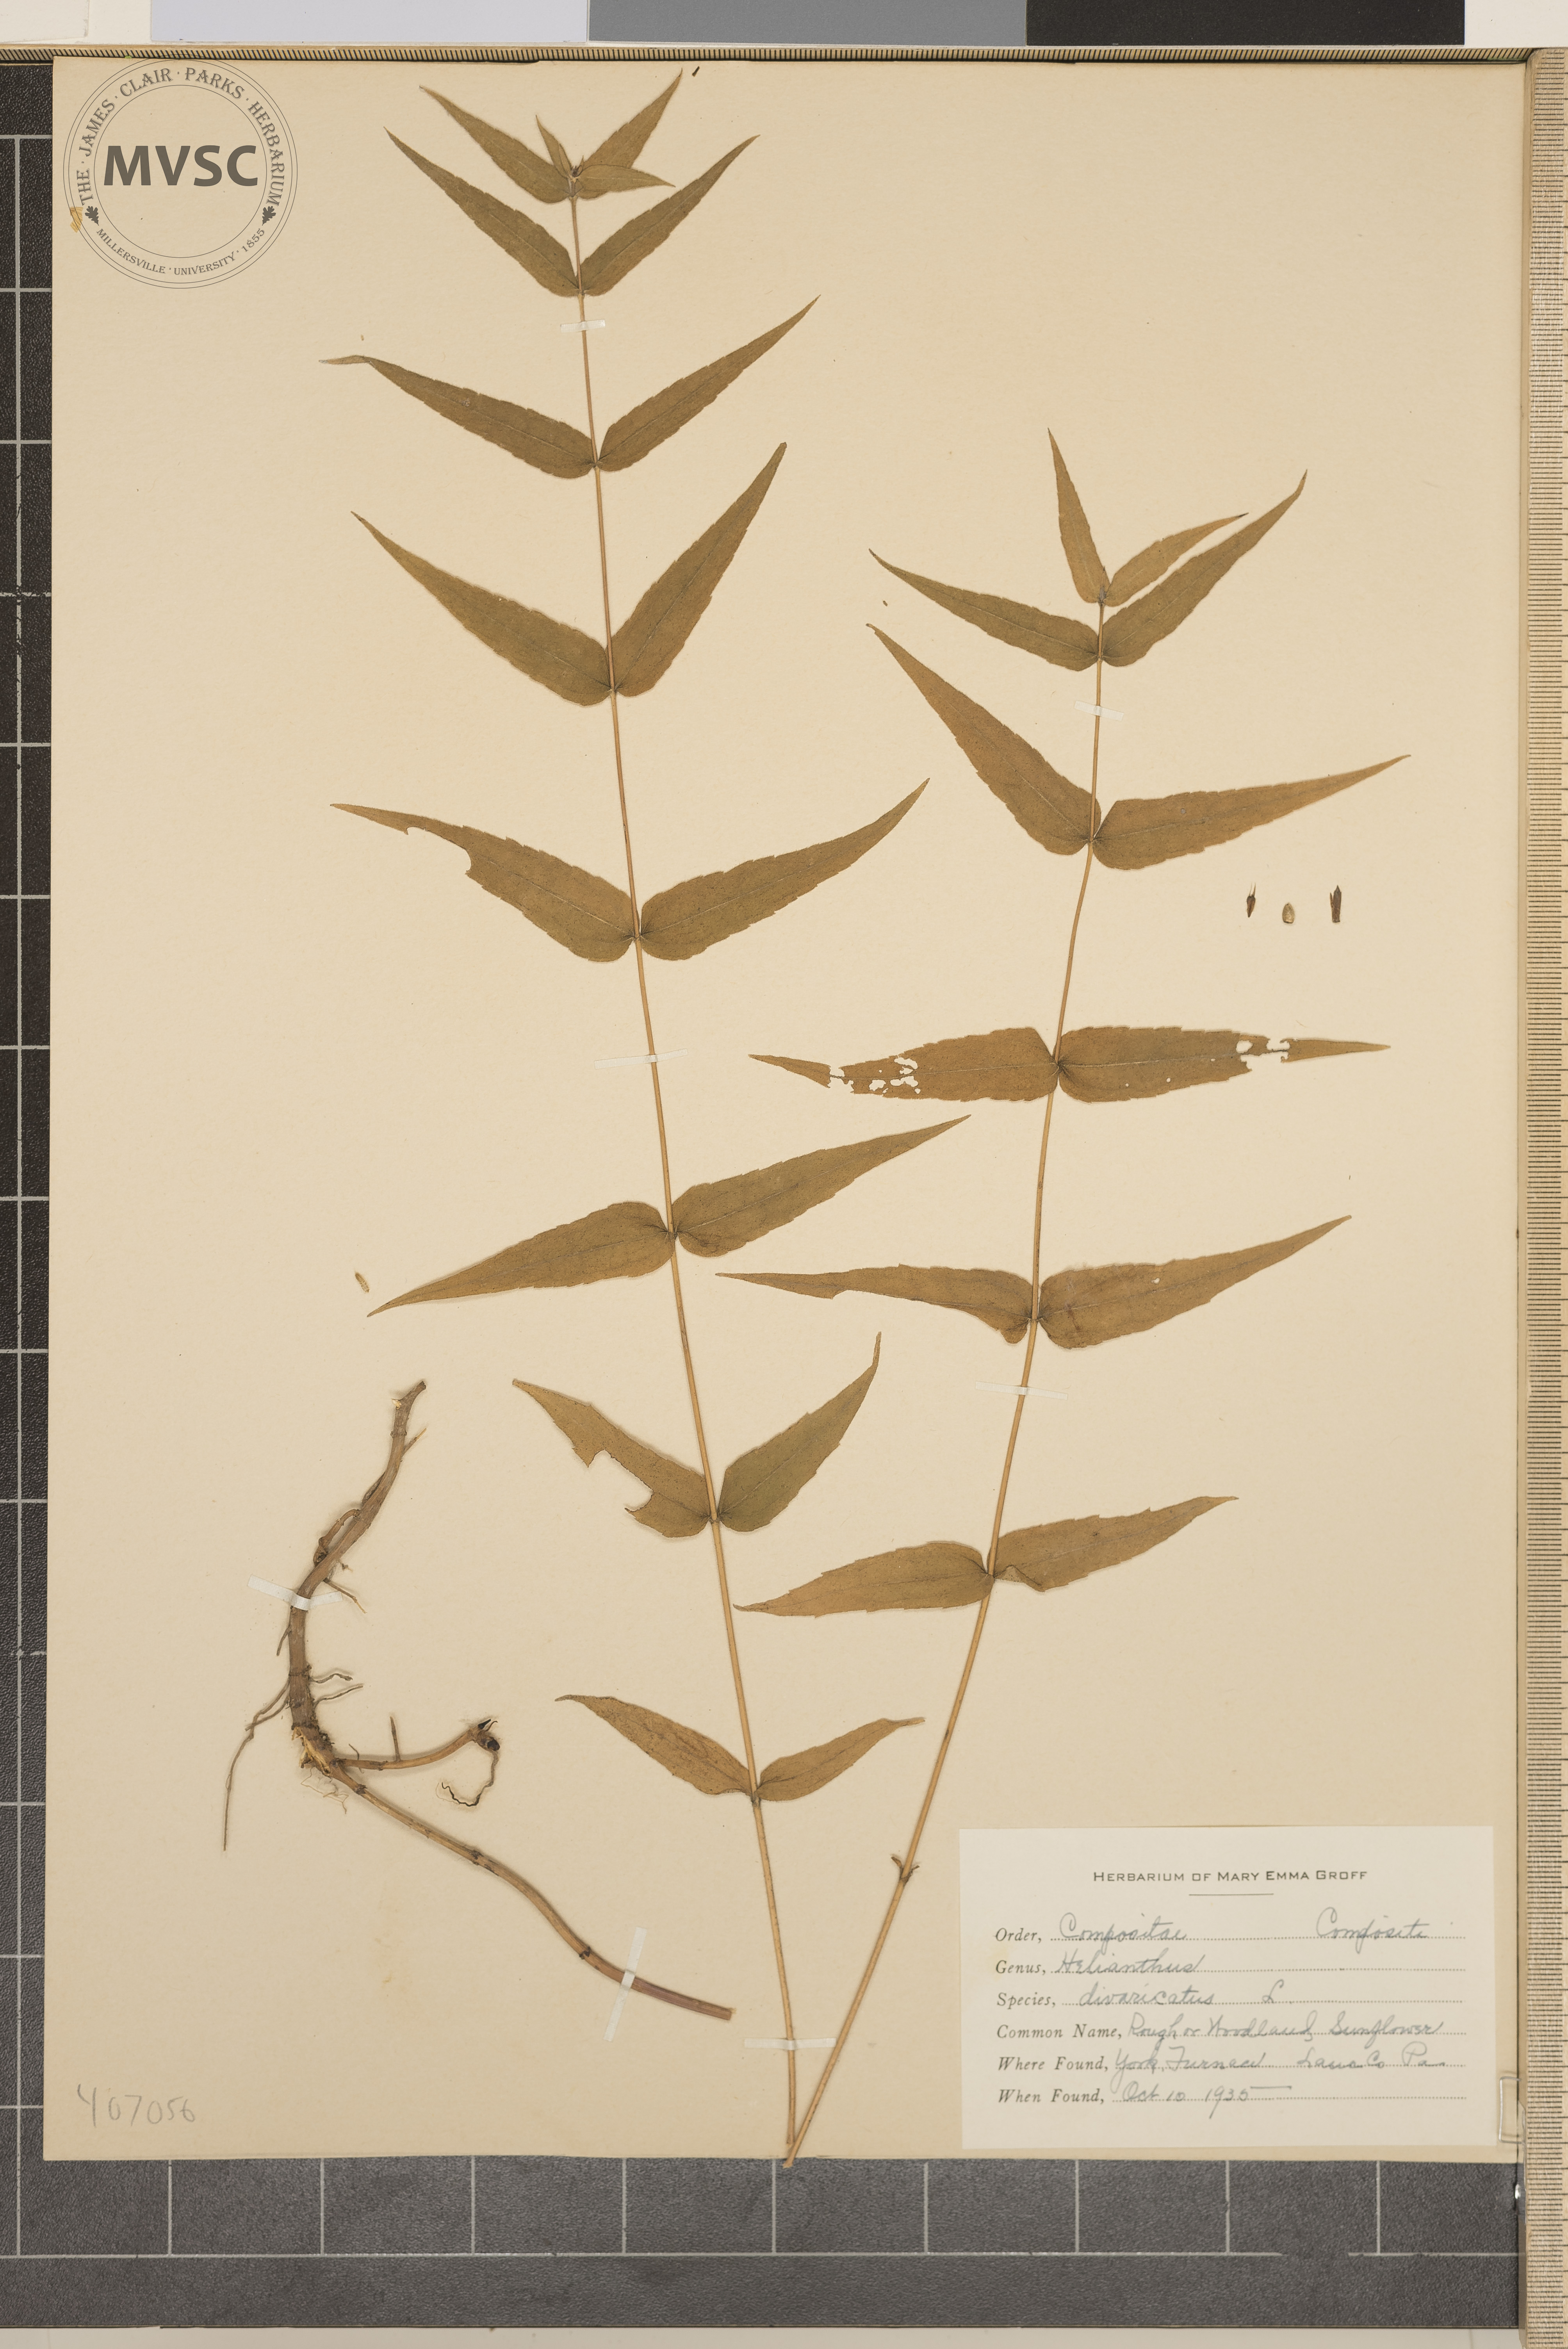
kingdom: Plantae
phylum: Tracheophyta
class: Magnoliopsida
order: Asterales
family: Asteraceae
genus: Helianthus
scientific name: Helianthus divaricatus
